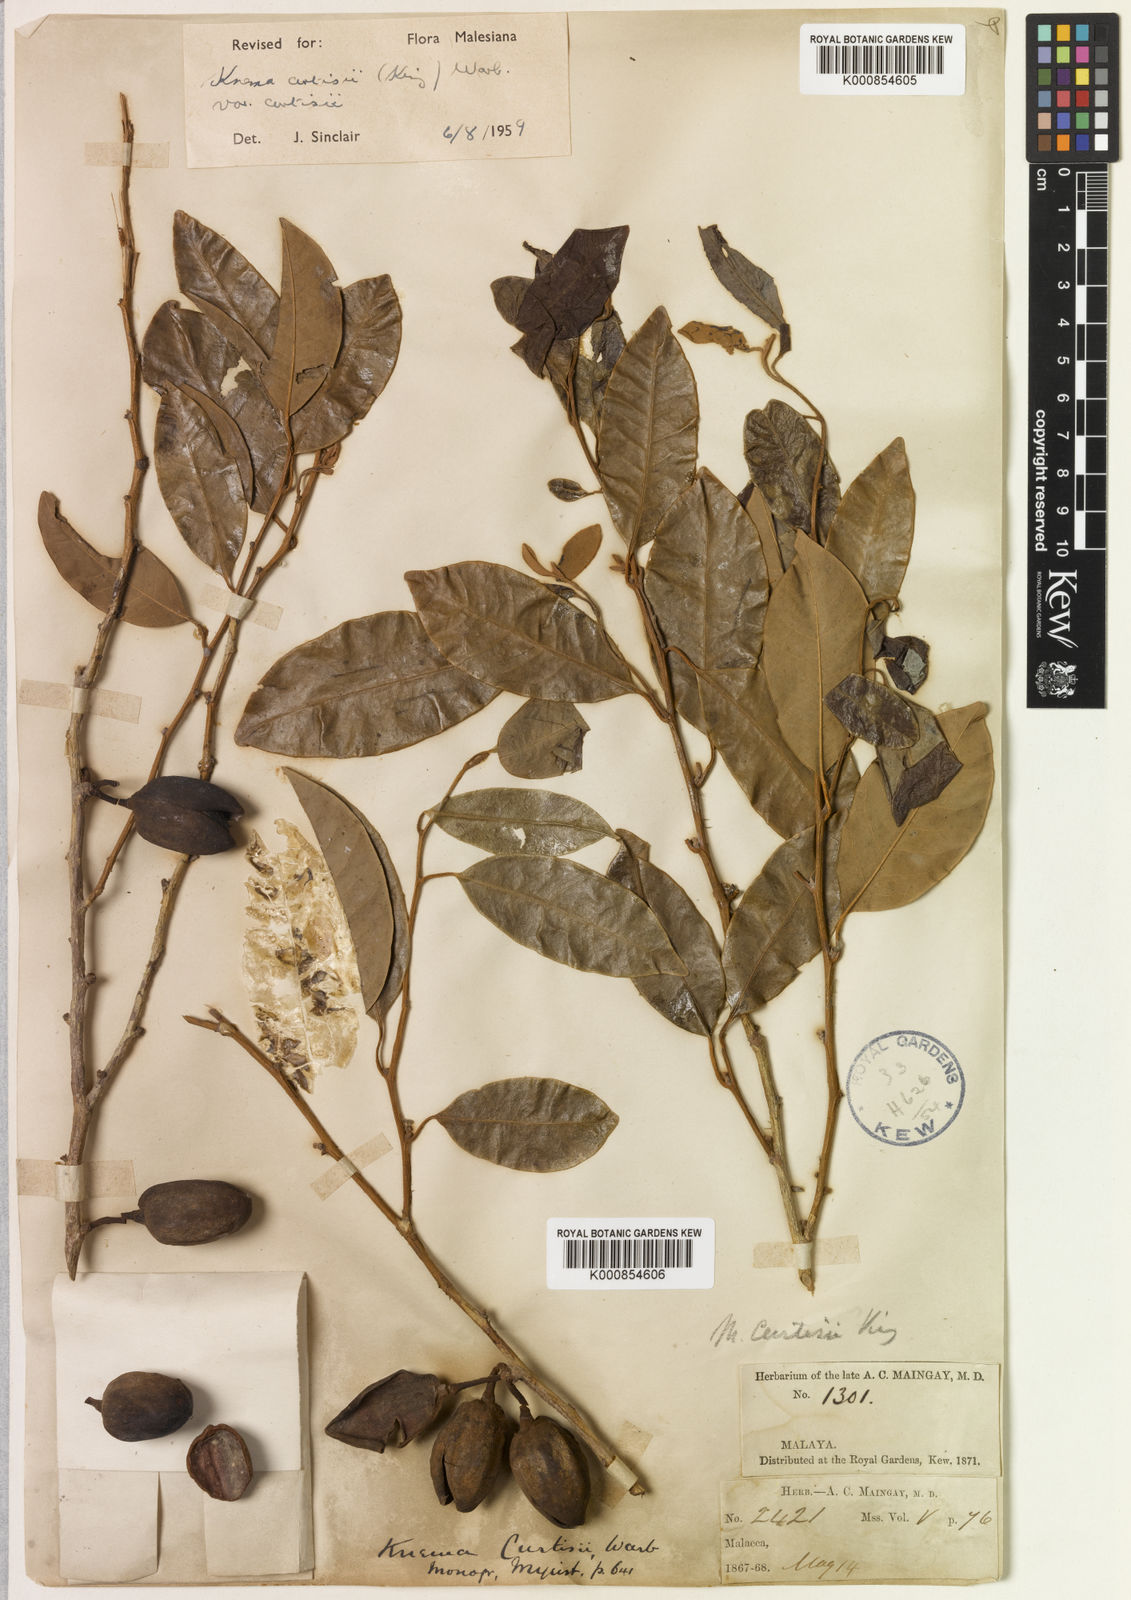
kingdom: Plantae
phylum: Tracheophyta
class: Magnoliopsida
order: Magnoliales
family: Myristicaceae
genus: Knema
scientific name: Knema curtisii
